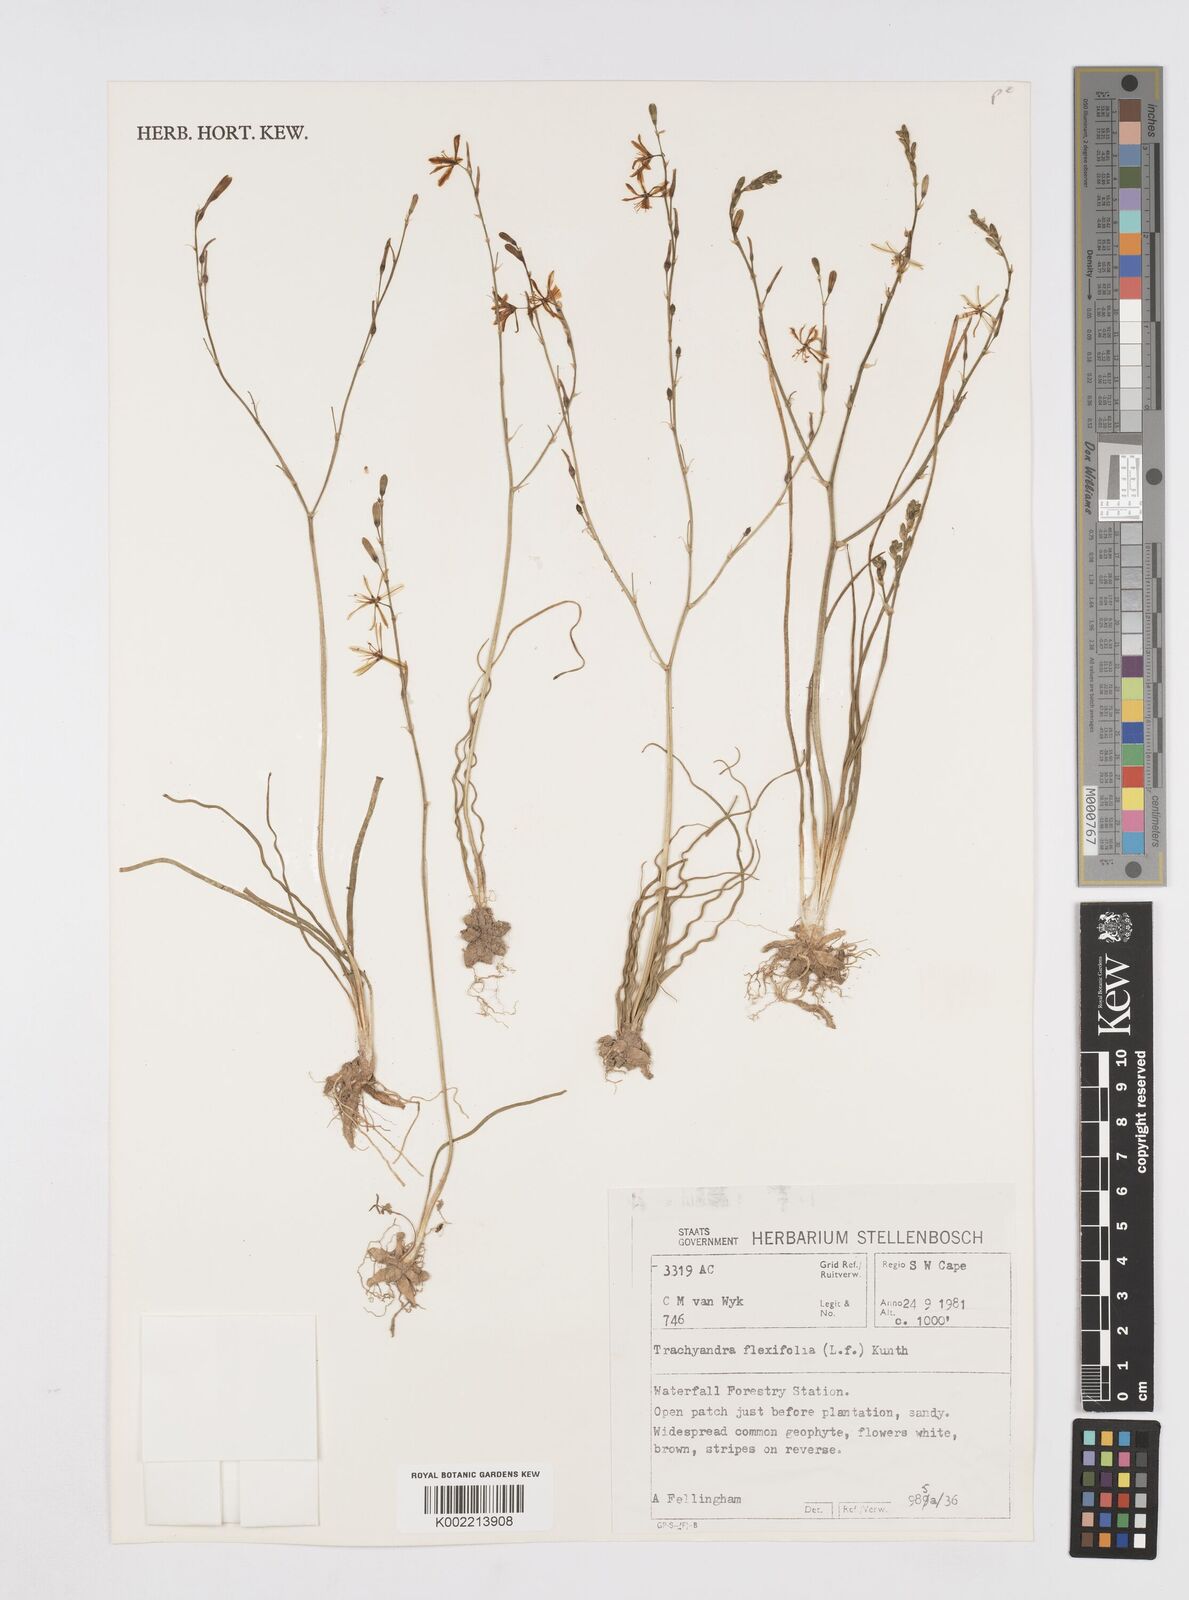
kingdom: Plantae
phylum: Tracheophyta
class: Liliopsida
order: Asparagales
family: Asphodelaceae
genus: Trachyandra
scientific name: Trachyandra flexifolia
